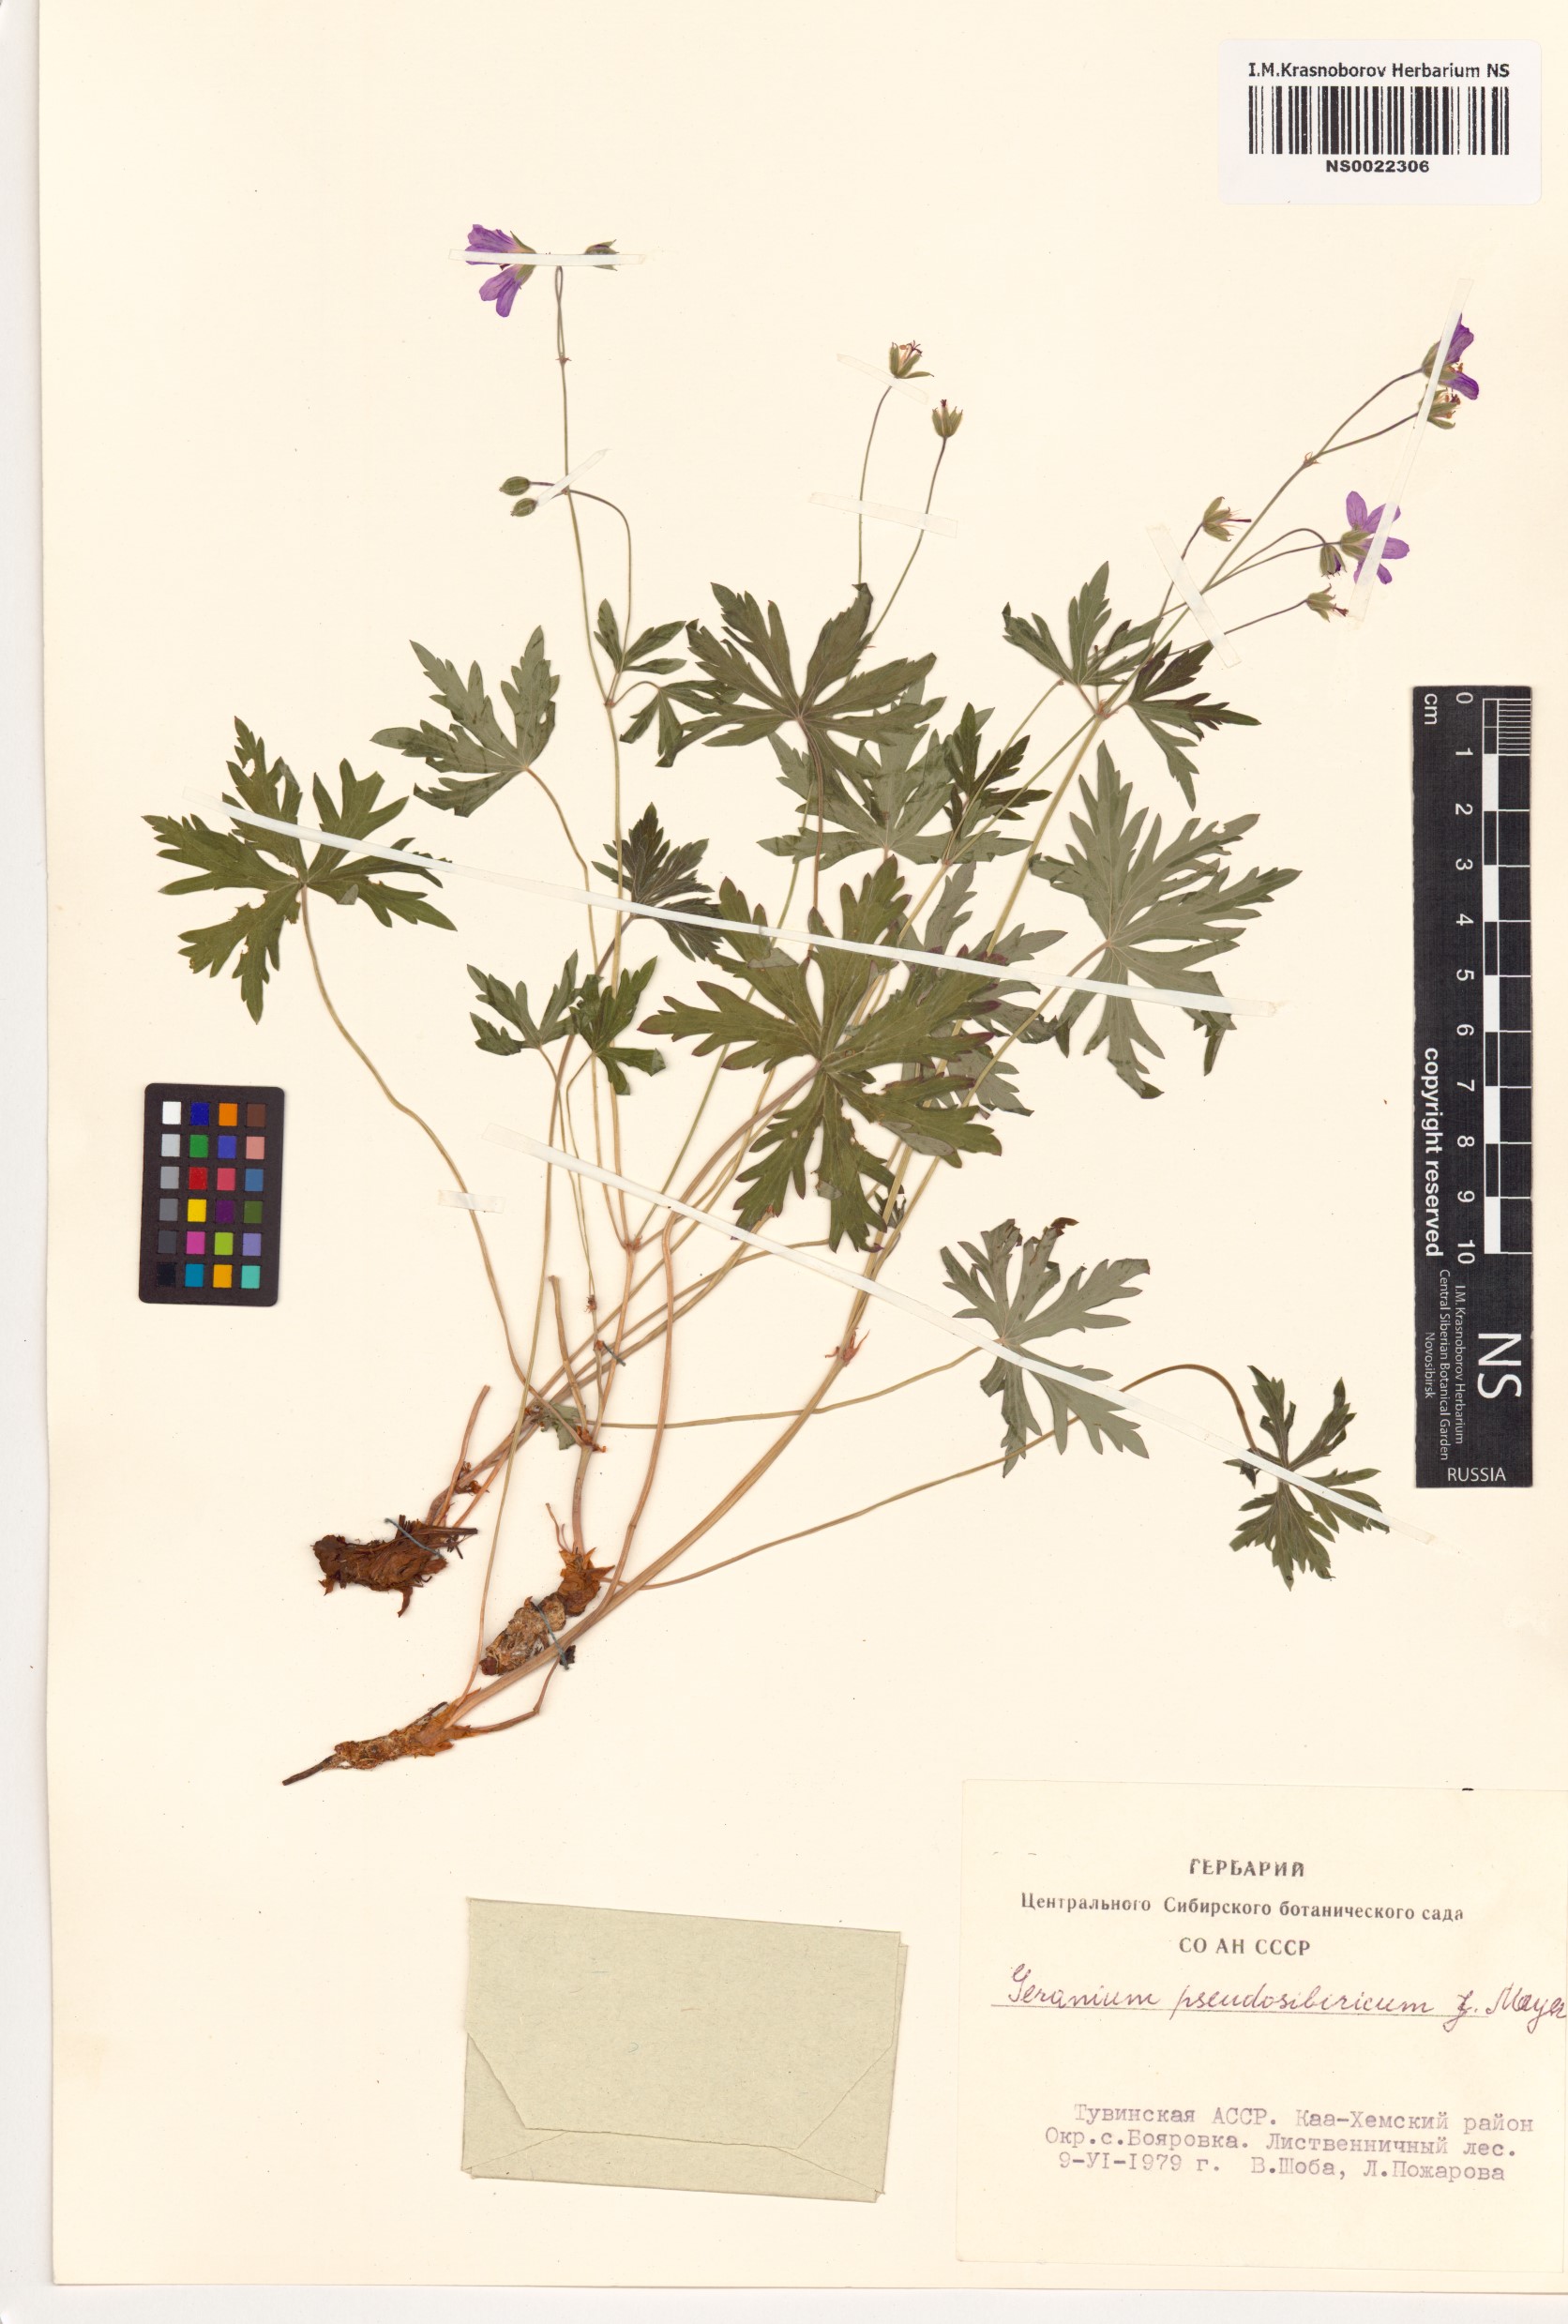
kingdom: Plantae
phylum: Tracheophyta
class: Magnoliopsida
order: Geraniales
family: Geraniaceae
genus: Geranium
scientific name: Geranium pseudosibiricum
